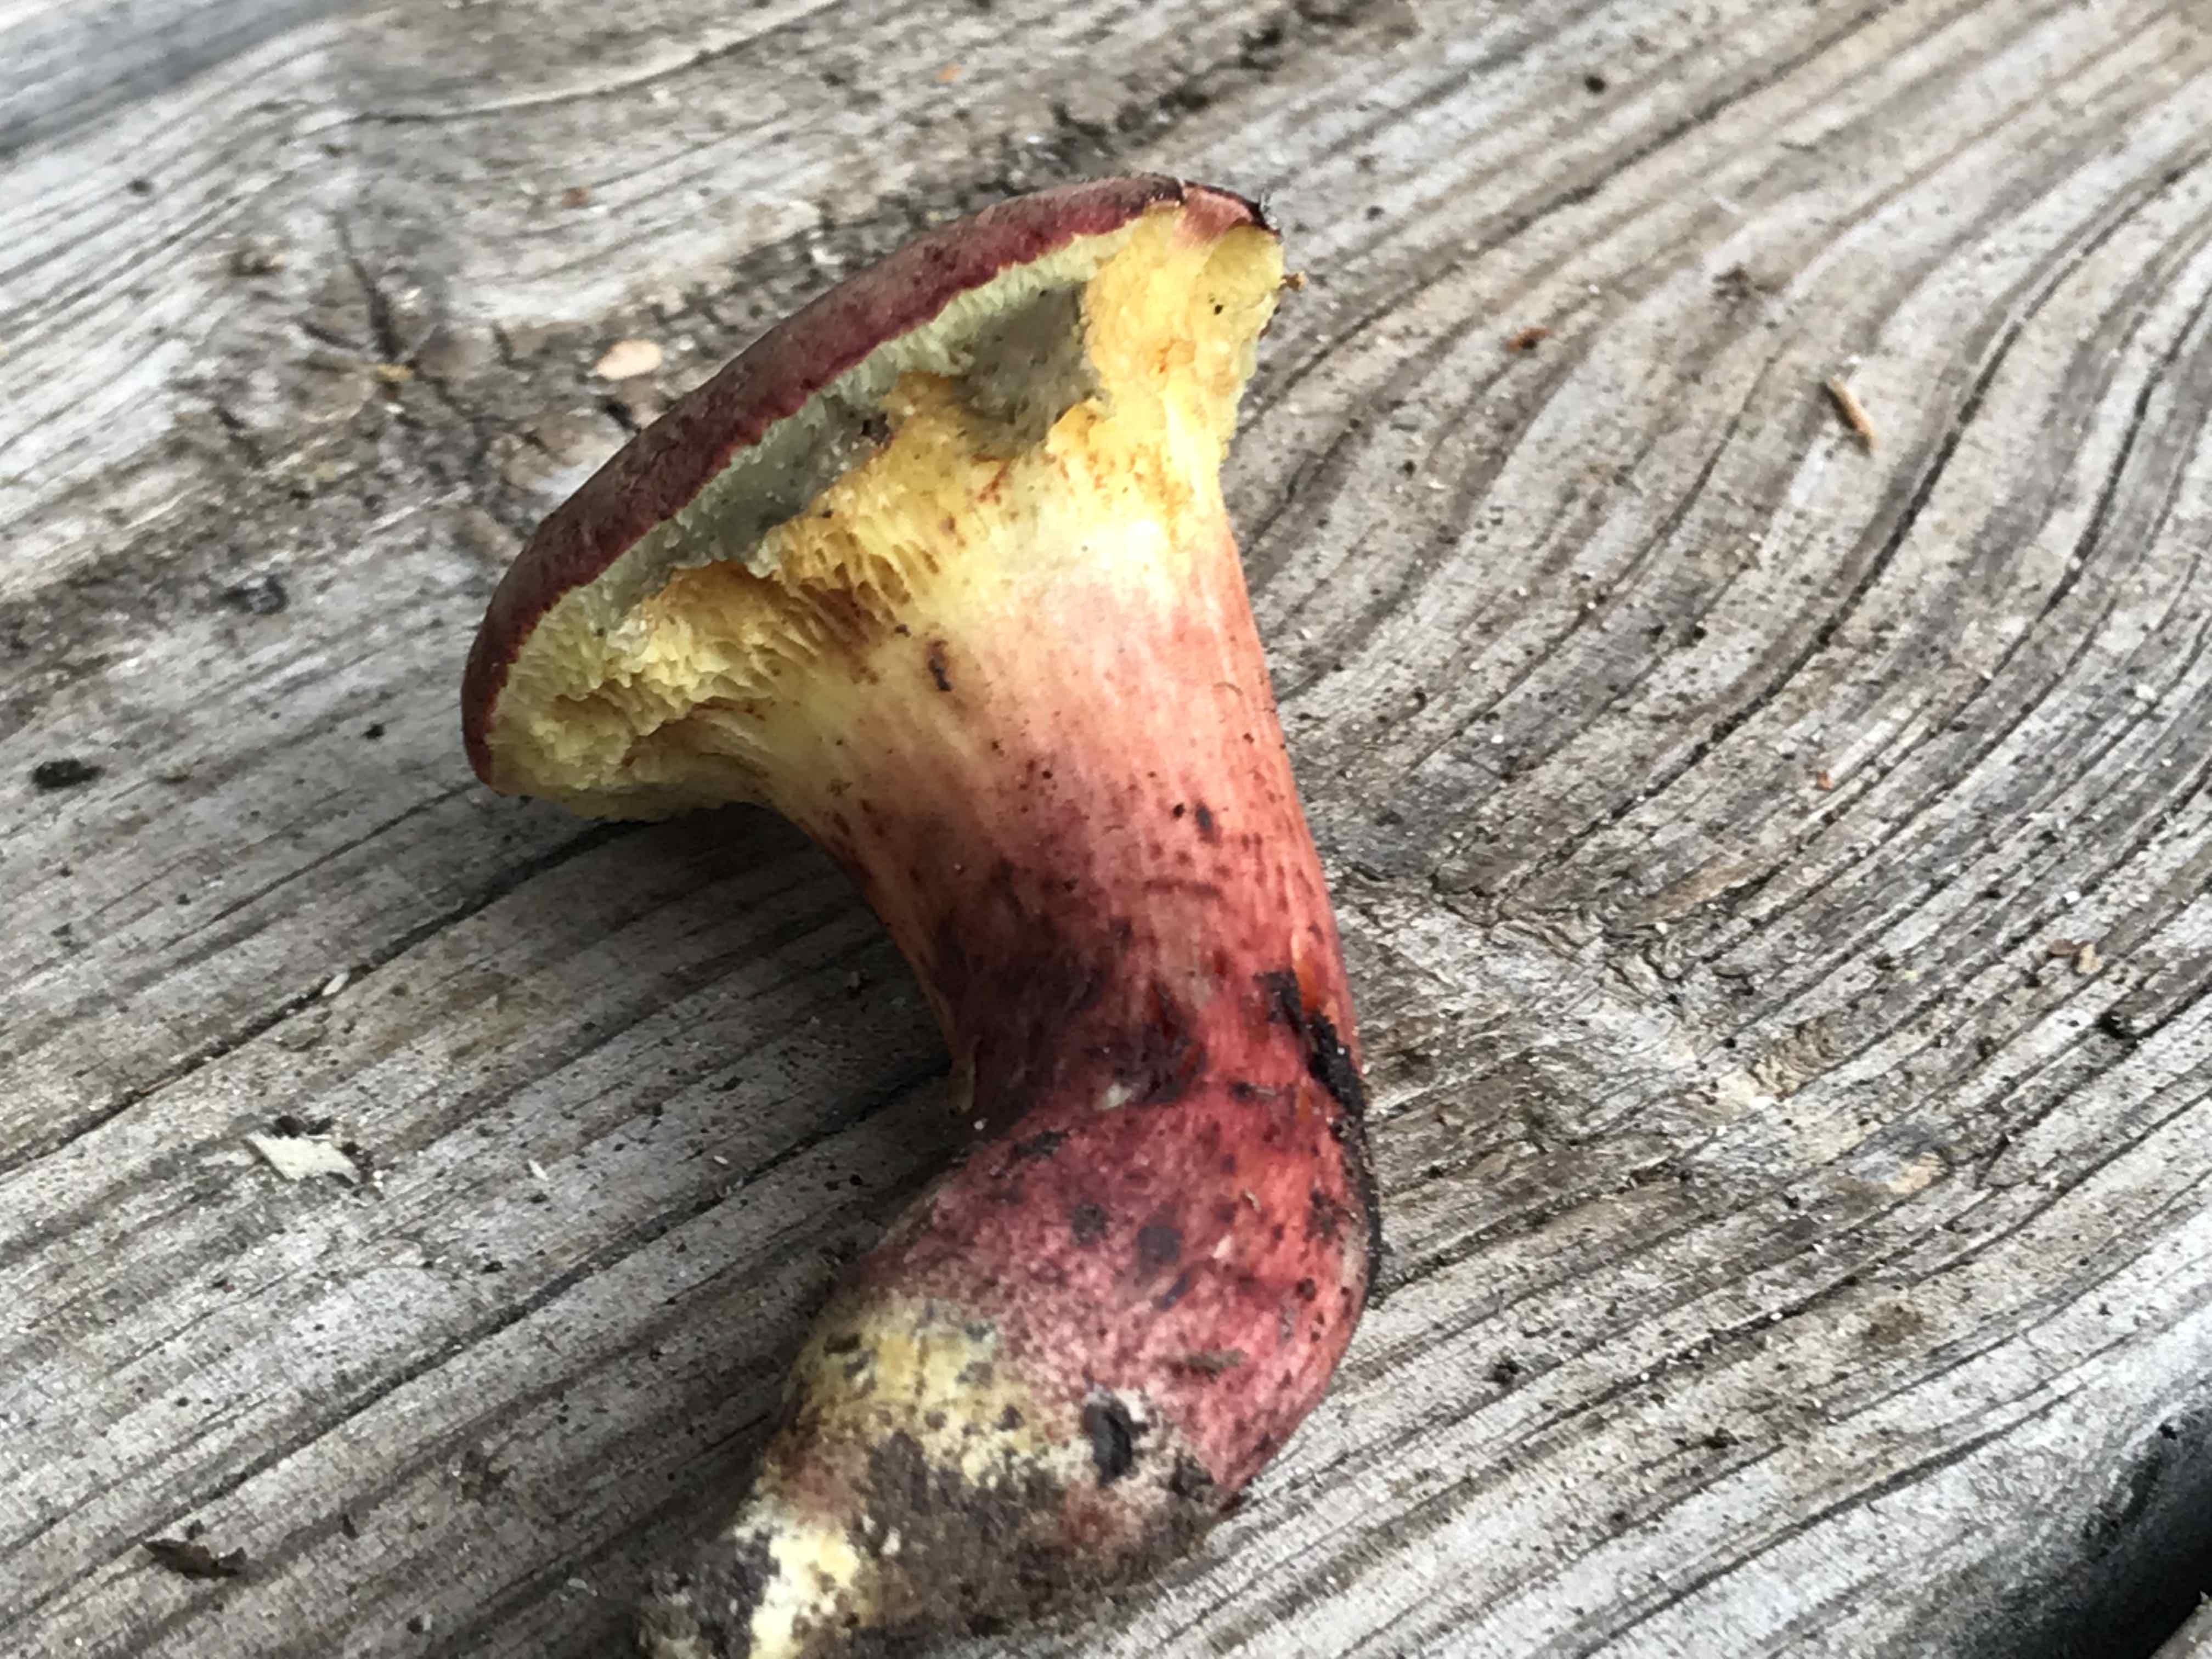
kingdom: Fungi
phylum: Basidiomycota
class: Agaricomycetes
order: Boletales
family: Boletaceae
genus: Xerocomellus
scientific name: Xerocomellus cisalpinus
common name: finsprukken rørhat
